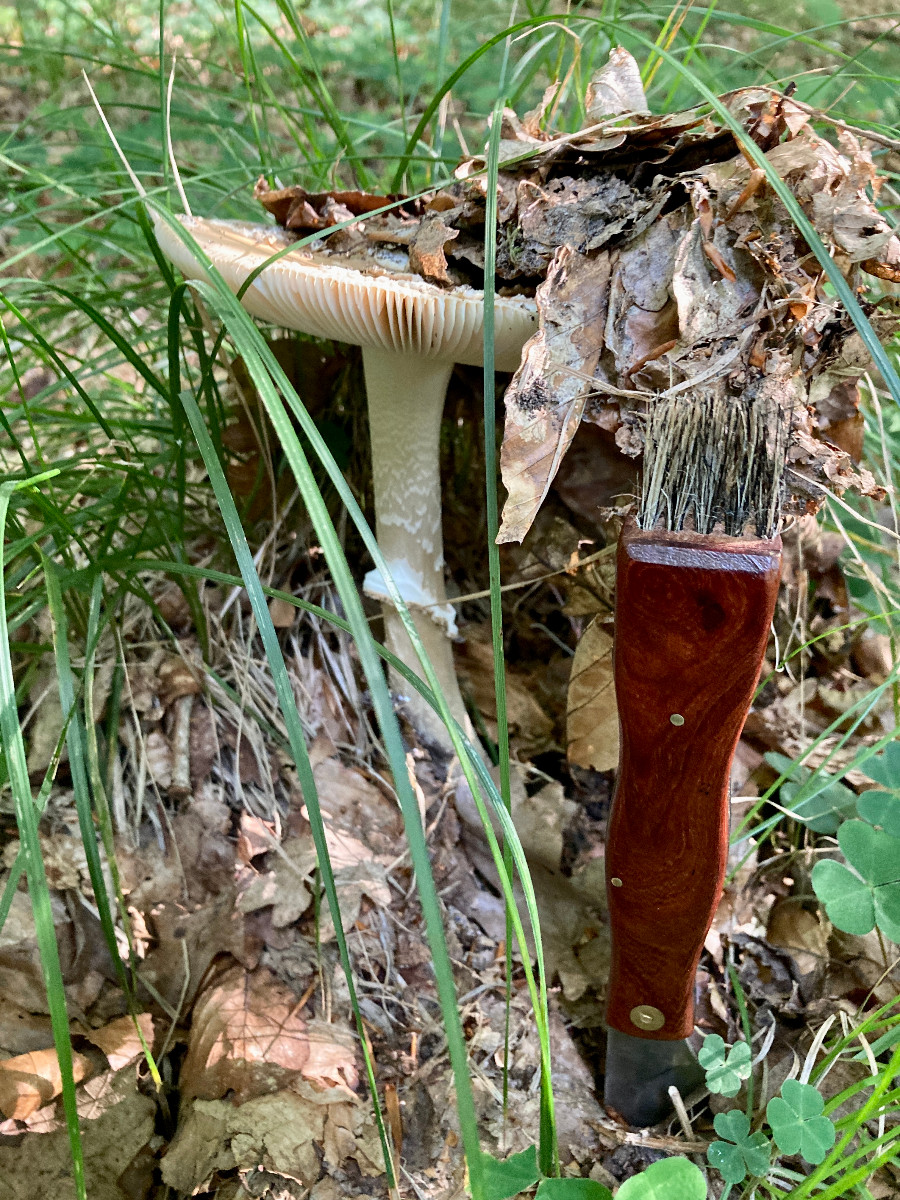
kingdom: Fungi
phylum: Basidiomycota
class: Agaricomycetes
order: Agaricales
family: Amanitaceae
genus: Amanita
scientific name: Amanita eliae
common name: isabella-fluesvamp
